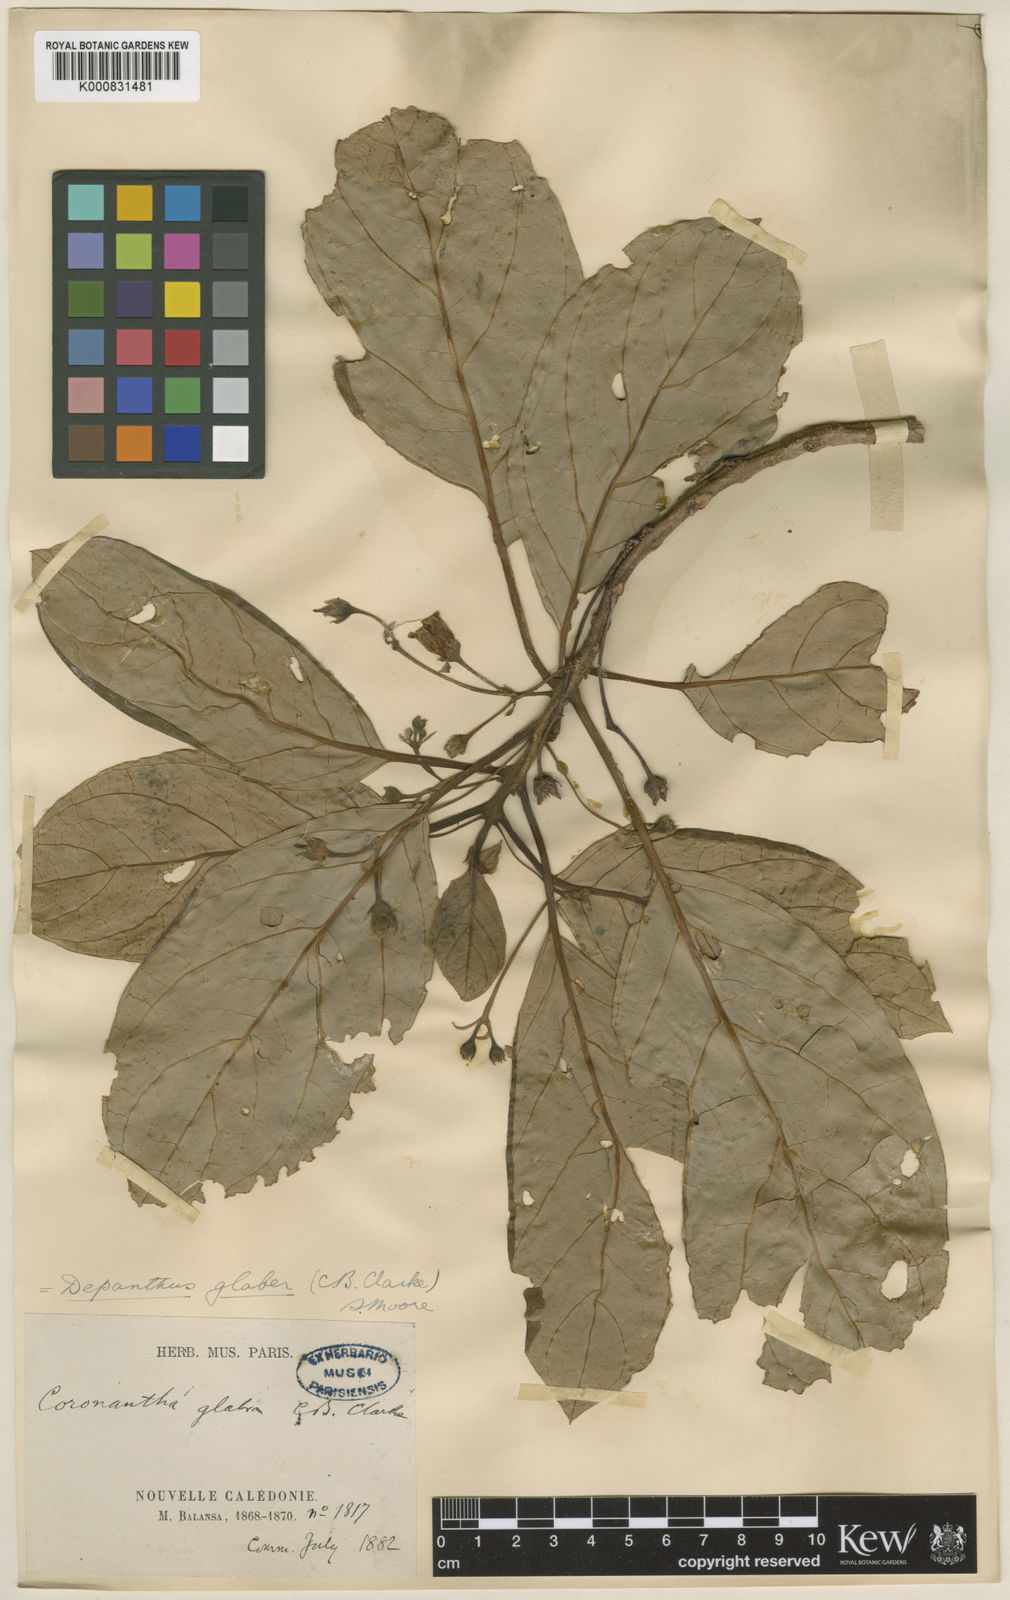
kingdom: Plantae
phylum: Tracheophyta
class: Magnoliopsida
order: Lamiales
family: Gesneriaceae
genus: Depanthus
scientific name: Depanthus glaber
